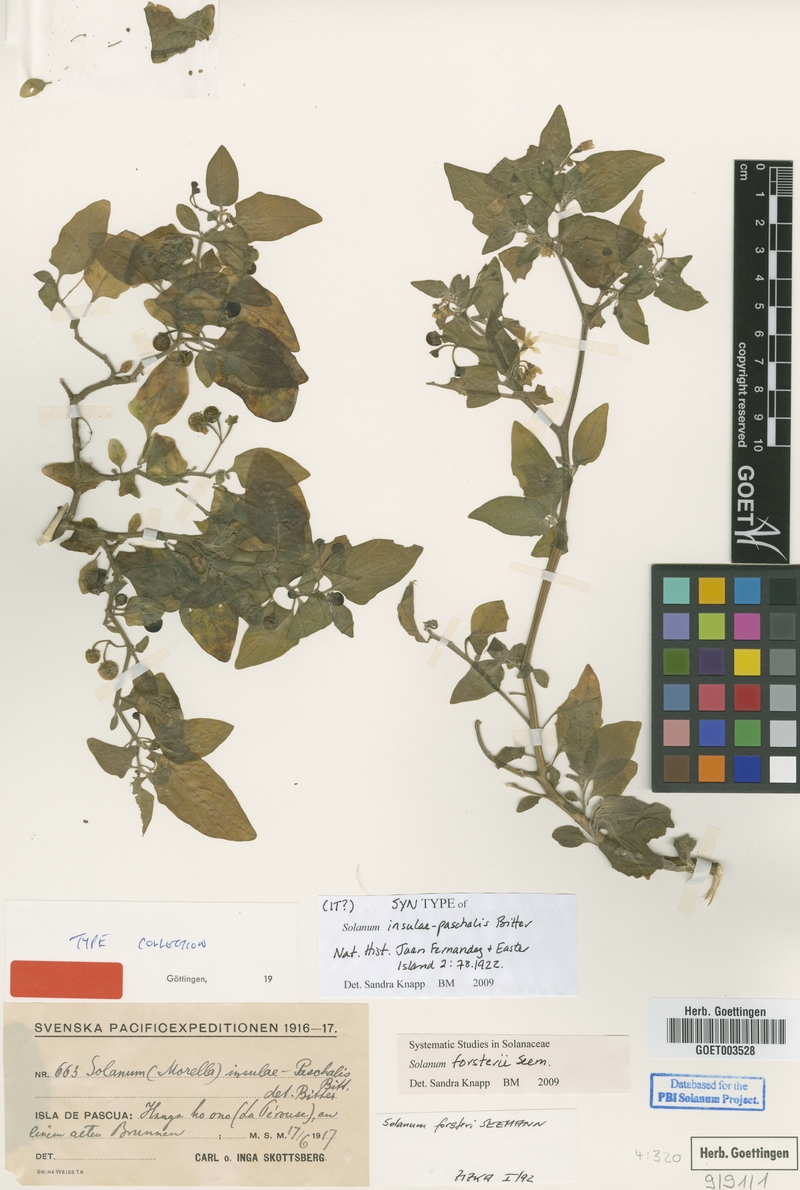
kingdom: Plantae
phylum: Tracheophyta
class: Magnoliopsida
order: Solanales
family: Solanaceae
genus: Solanum
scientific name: Solanum opacum
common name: Green-berry nightshade
